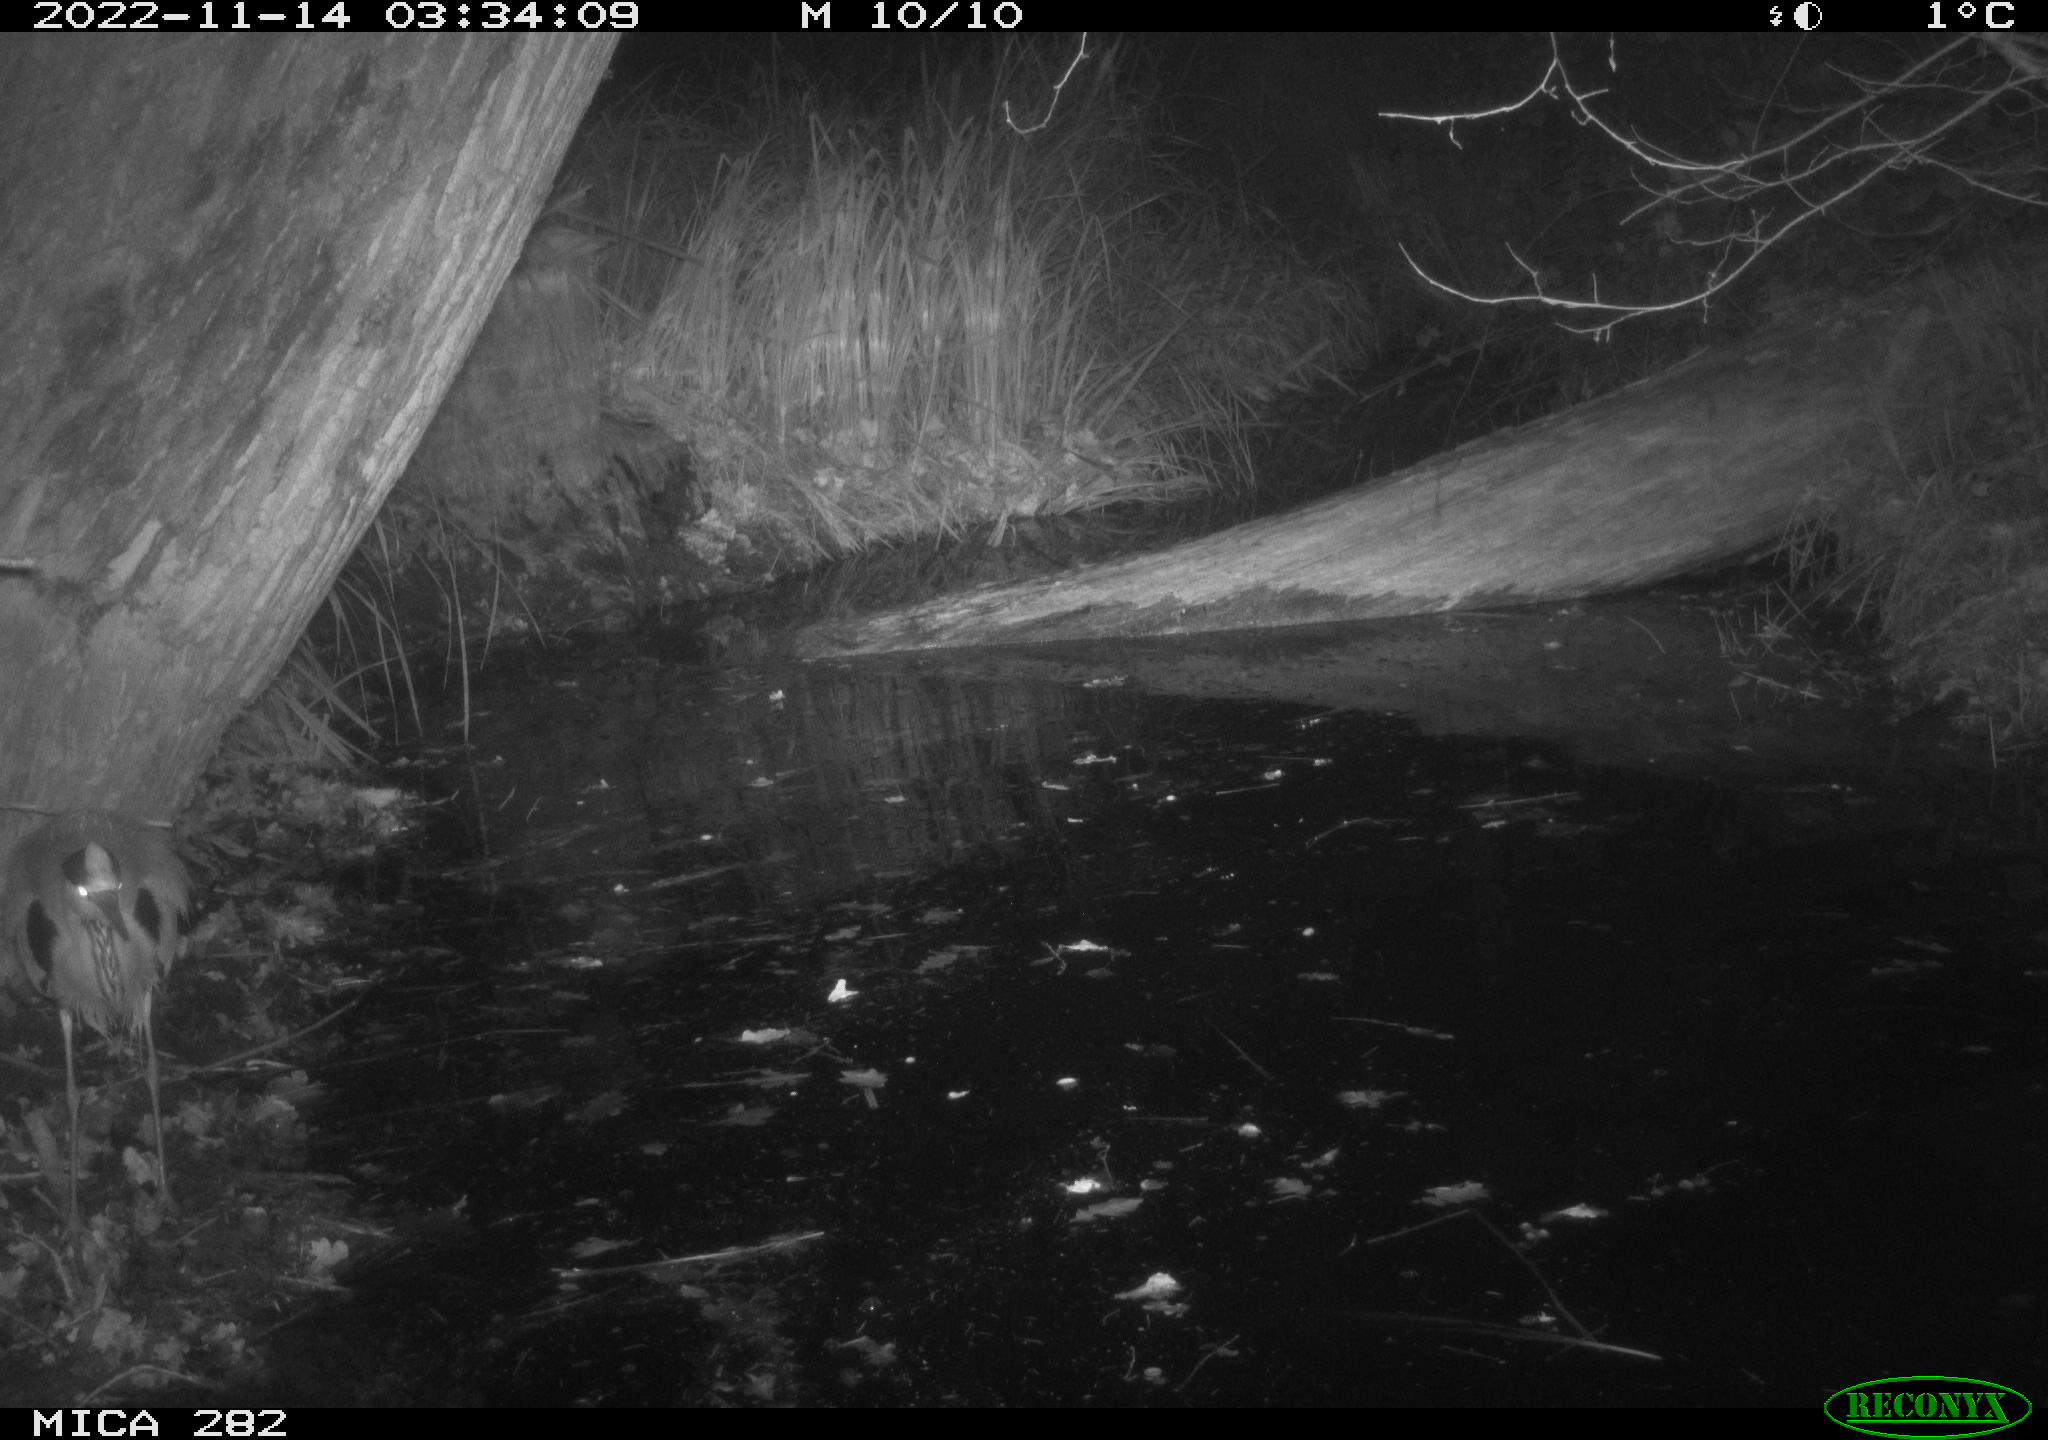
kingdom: Animalia
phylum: Chordata
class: Aves
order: Pelecaniformes
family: Ardeidae
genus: Ardea
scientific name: Ardea cinerea
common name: Grey heron
